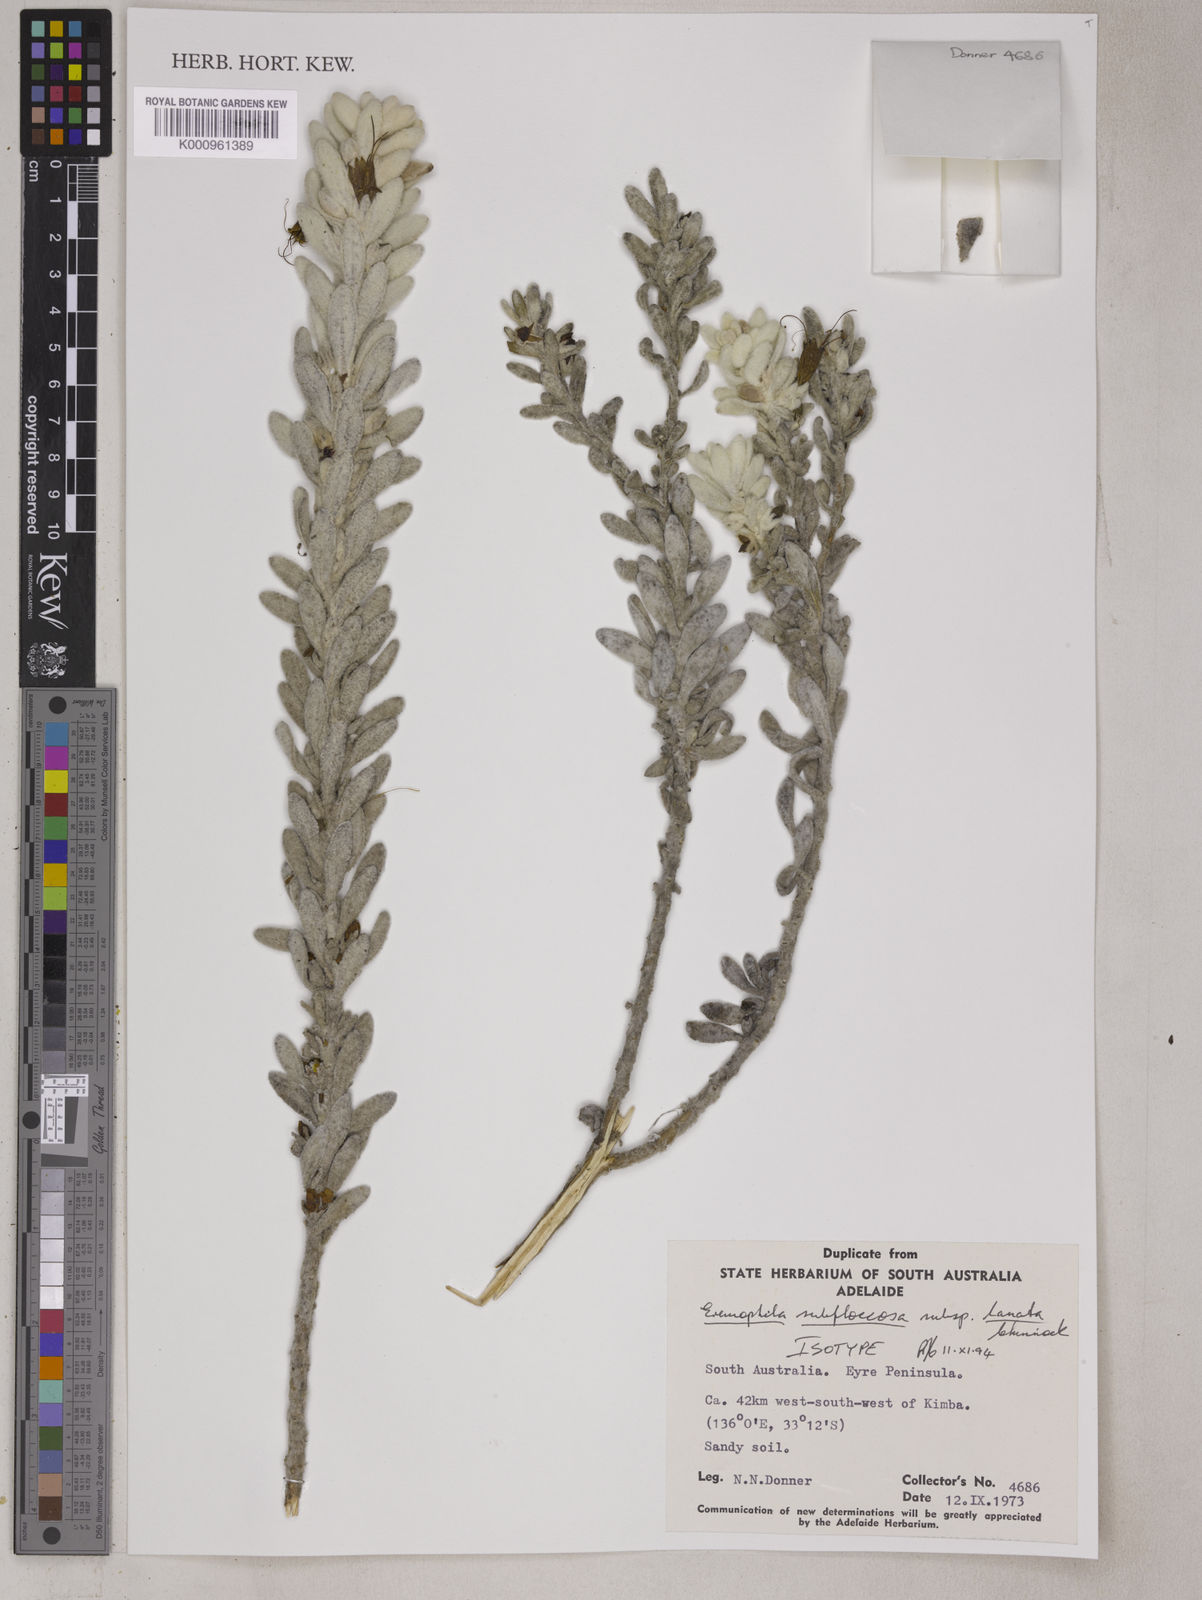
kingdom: Plantae
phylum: Tracheophyta
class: Magnoliopsida
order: Lamiales
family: Scrophulariaceae
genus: Eremophila
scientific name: Eremophila subfloccosa
